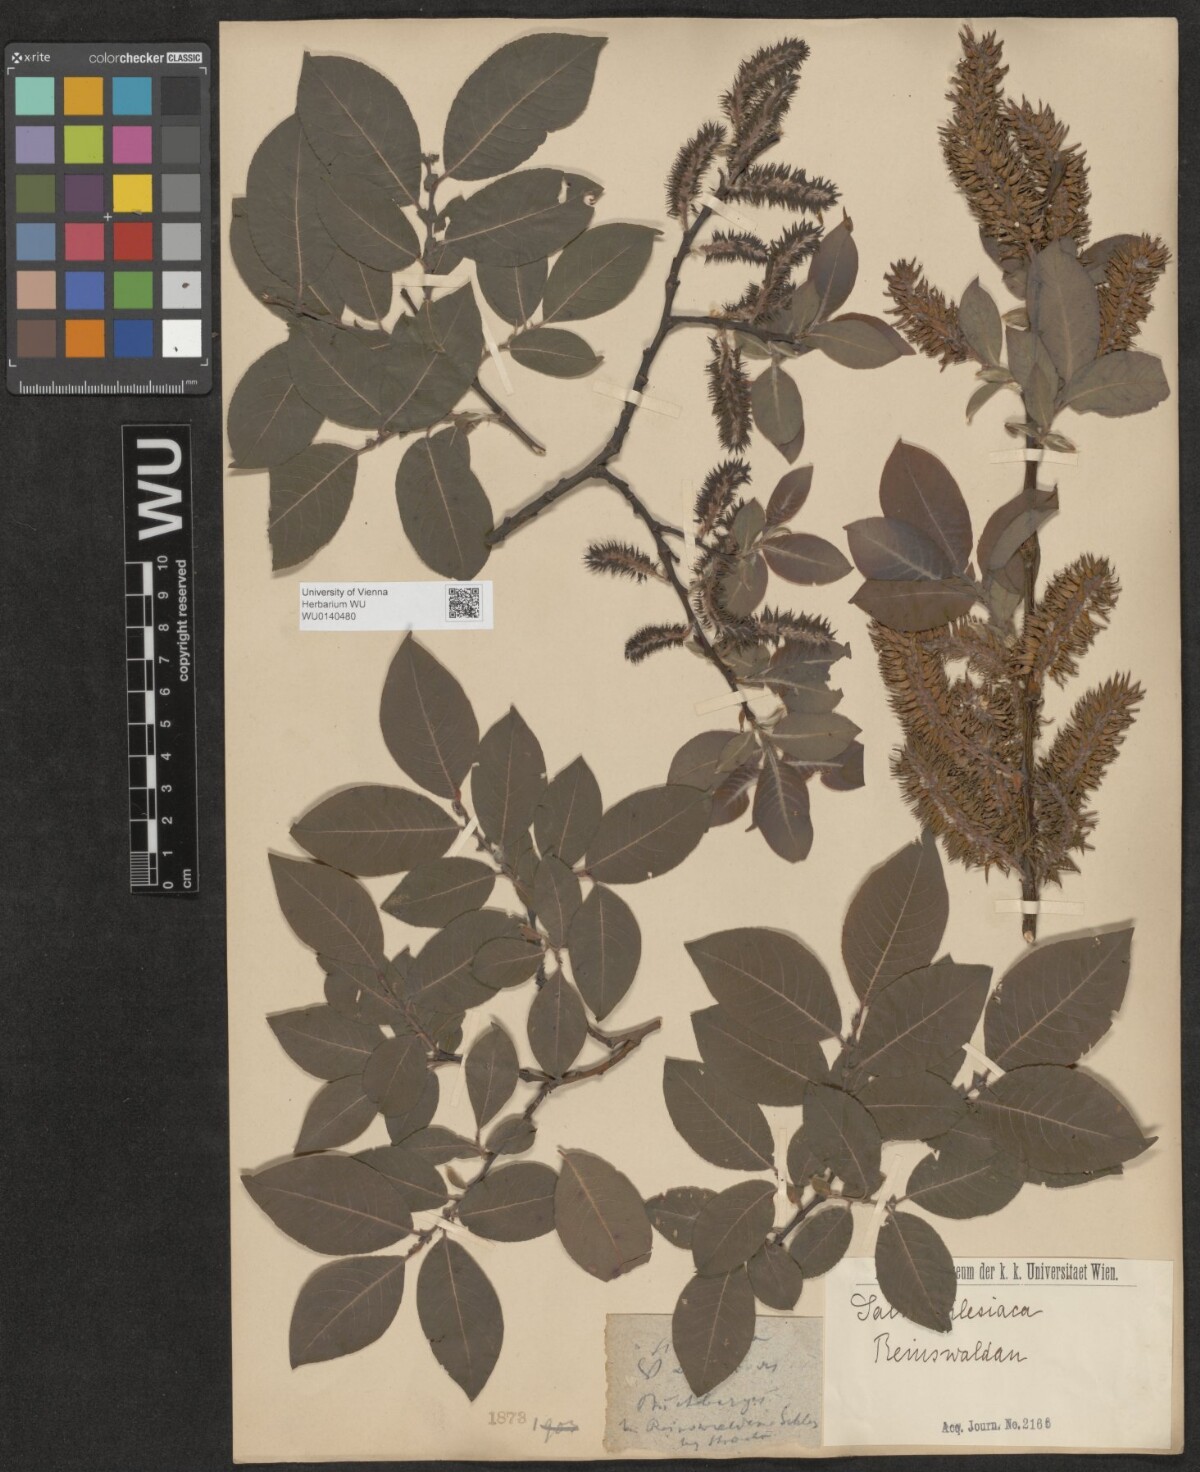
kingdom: Plantae
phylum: Tracheophyta
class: Magnoliopsida
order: Malpighiales
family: Salicaceae
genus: Salix
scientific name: Salix silesiaca
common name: Silesian willow
